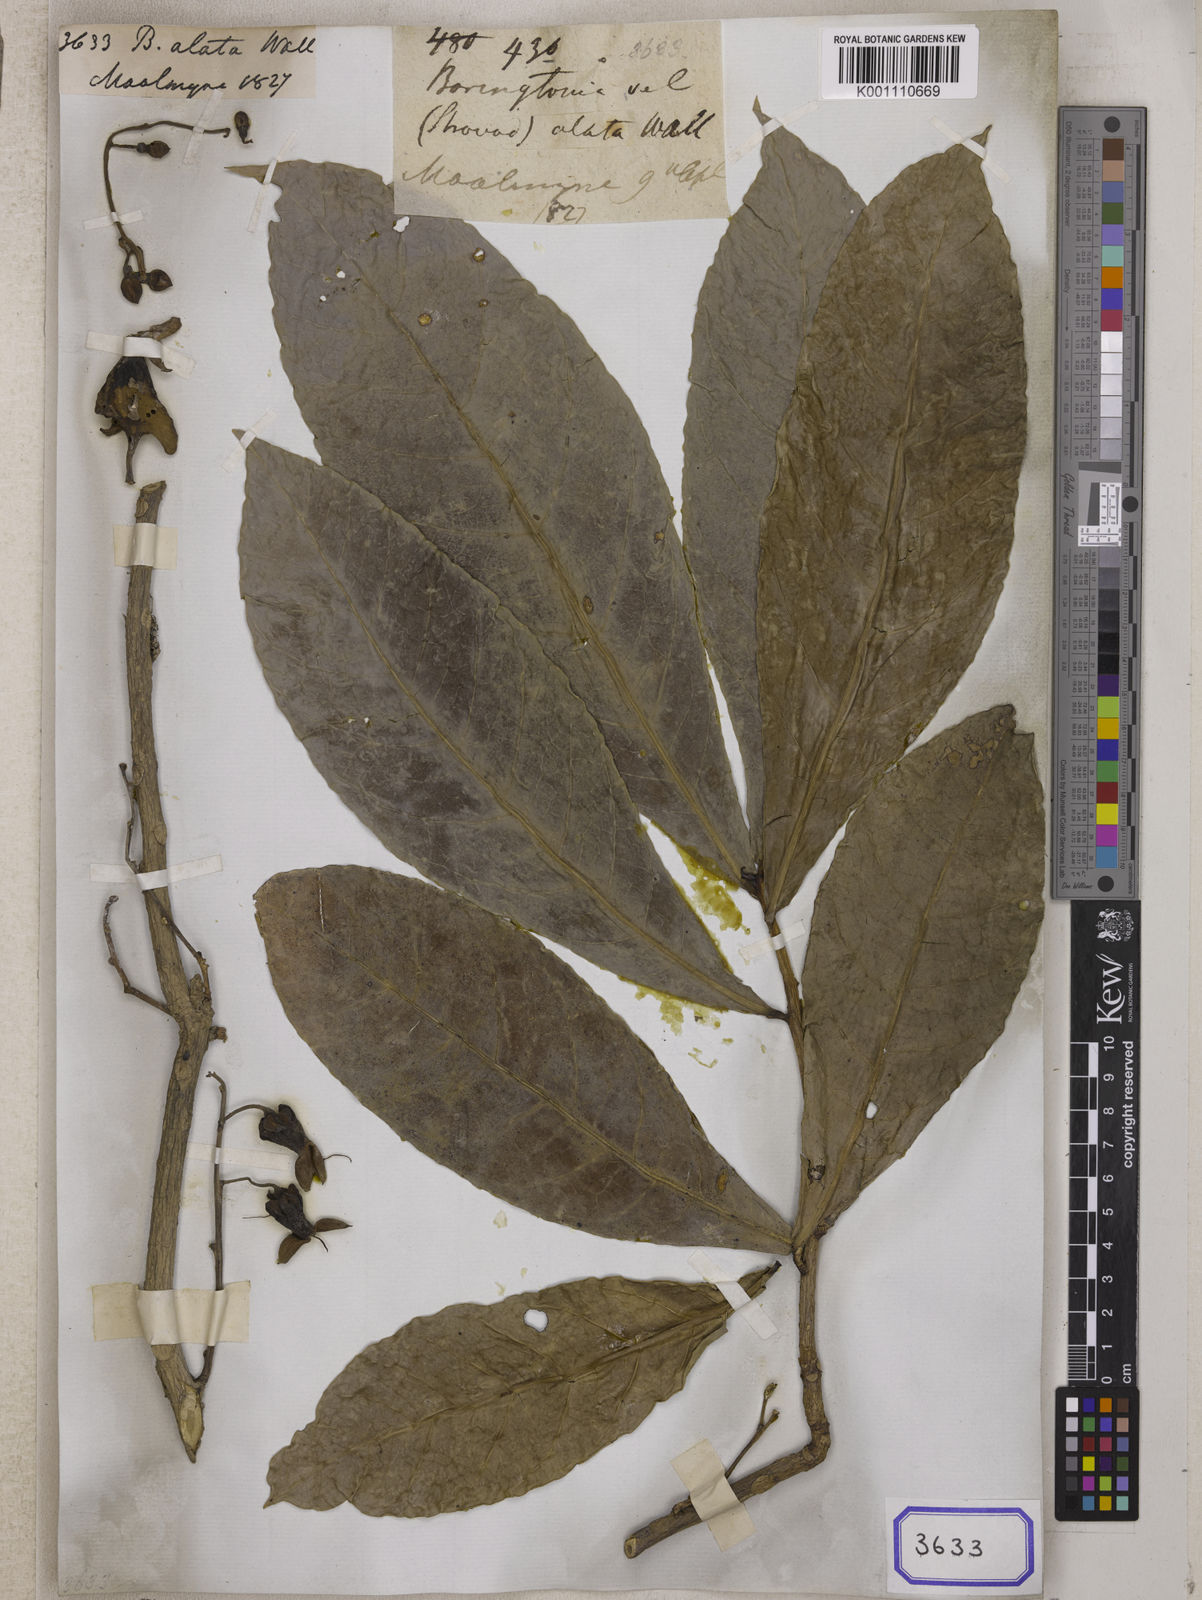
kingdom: Plantae
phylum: Tracheophyta
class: Magnoliopsida
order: Ericales
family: Lecythidaceae
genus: Barringtonia
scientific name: Barringtonia
